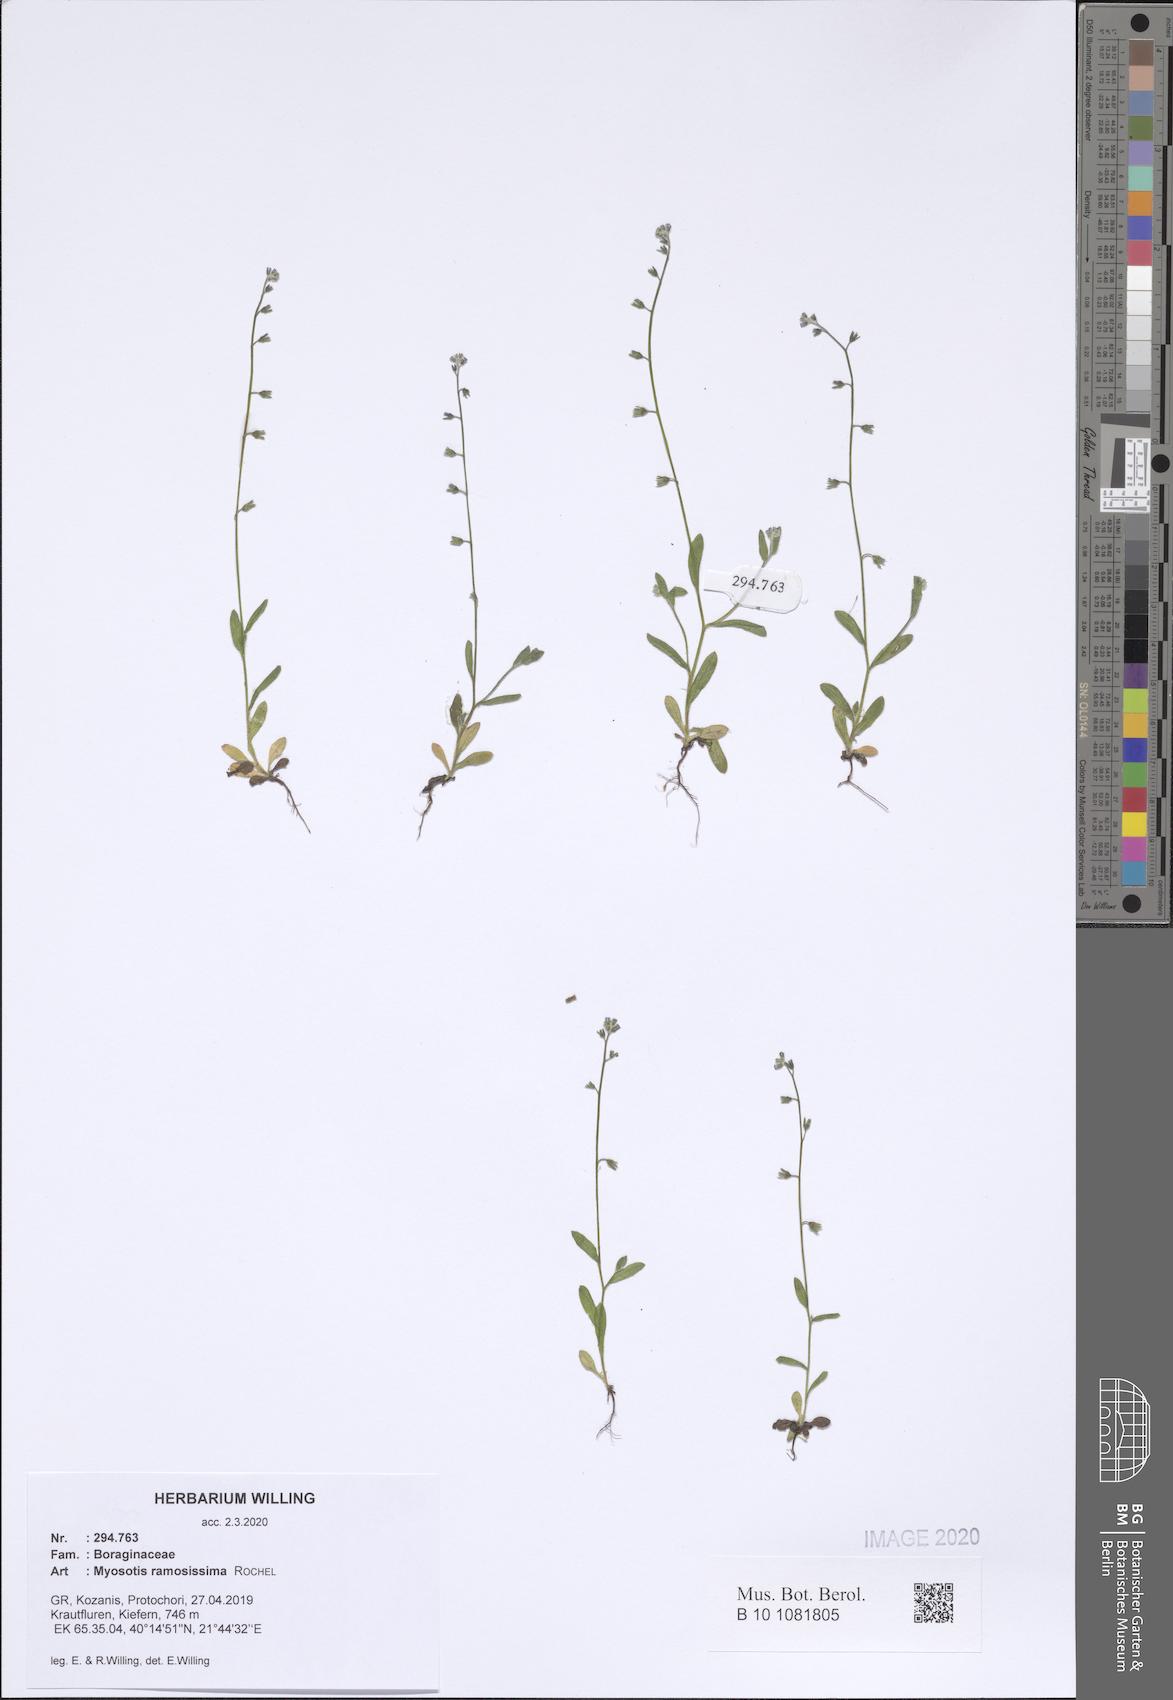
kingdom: Plantae
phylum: Tracheophyta
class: Magnoliopsida
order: Boraginales
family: Boraginaceae
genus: Myosotis
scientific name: Myosotis ramosissima
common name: Early forget-me-not
